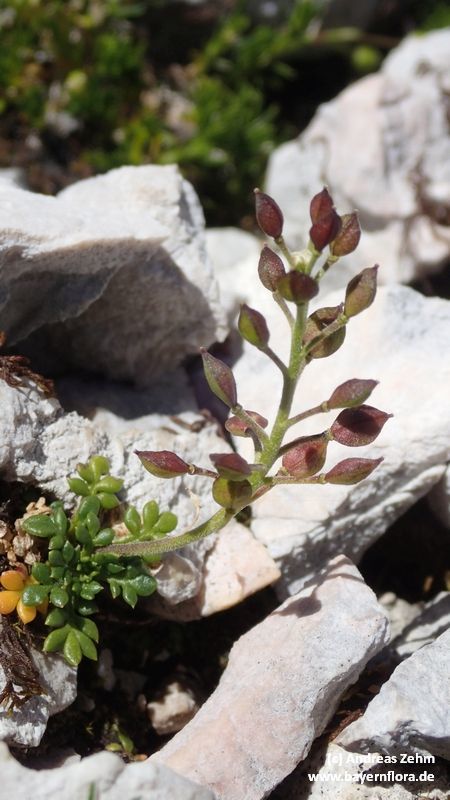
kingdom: Plantae
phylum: Tracheophyta
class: Magnoliopsida
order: Brassicales
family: Brassicaceae
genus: Hornungia
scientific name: Hornungia alpina
